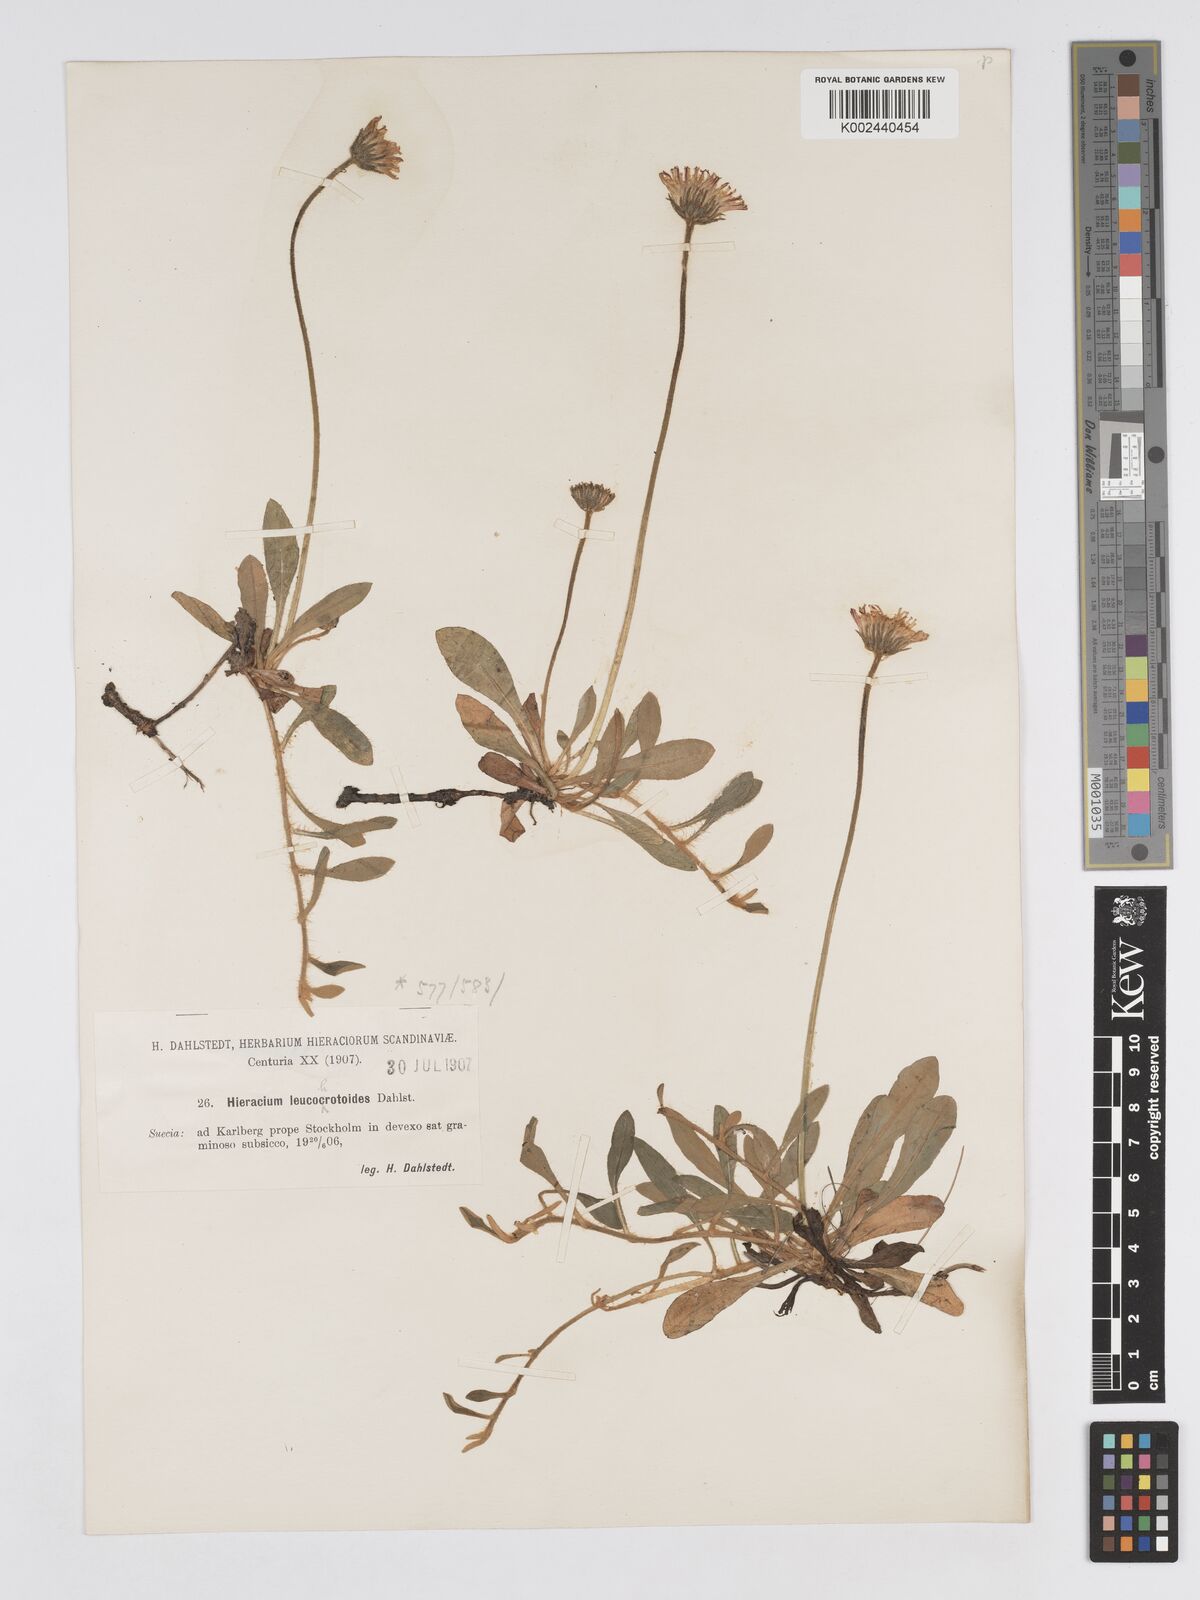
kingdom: Plantae
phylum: Tracheophyta
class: Magnoliopsida
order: Asterales
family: Asteraceae
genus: Hieracium
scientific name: Hieracium
